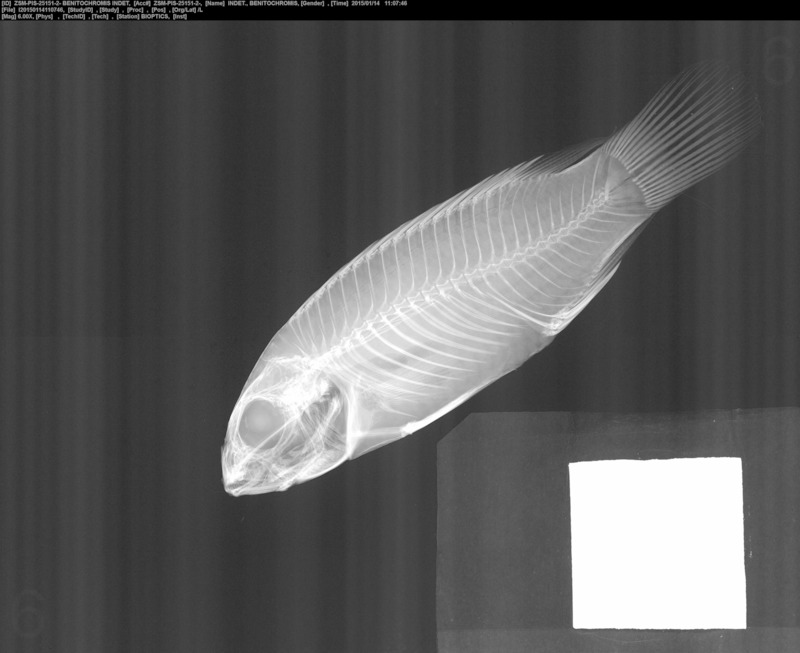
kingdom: Animalia
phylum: Chordata
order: Perciformes
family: Cichlidae
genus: Benitochromis
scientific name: Benitochromis
